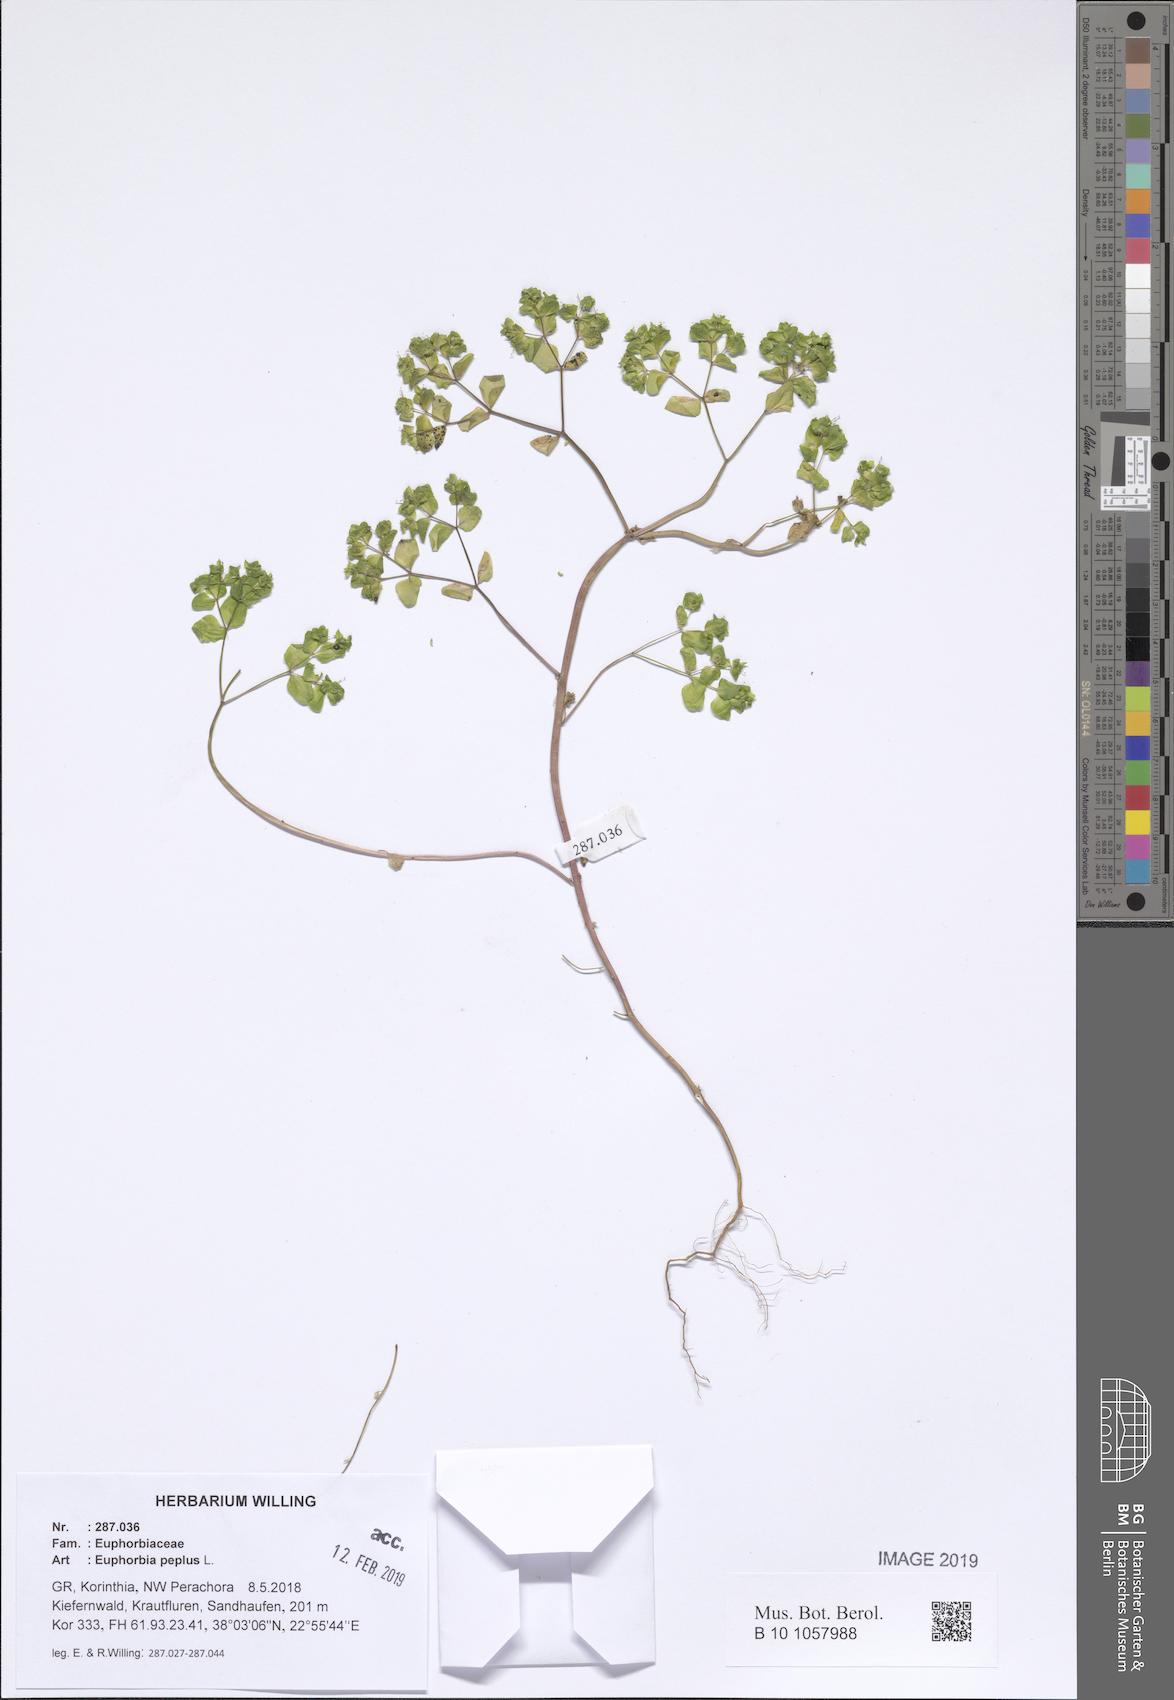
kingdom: Plantae
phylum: Tracheophyta
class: Magnoliopsida
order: Malpighiales
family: Euphorbiaceae
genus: Euphorbia
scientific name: Euphorbia peplus
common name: Petty spurge
